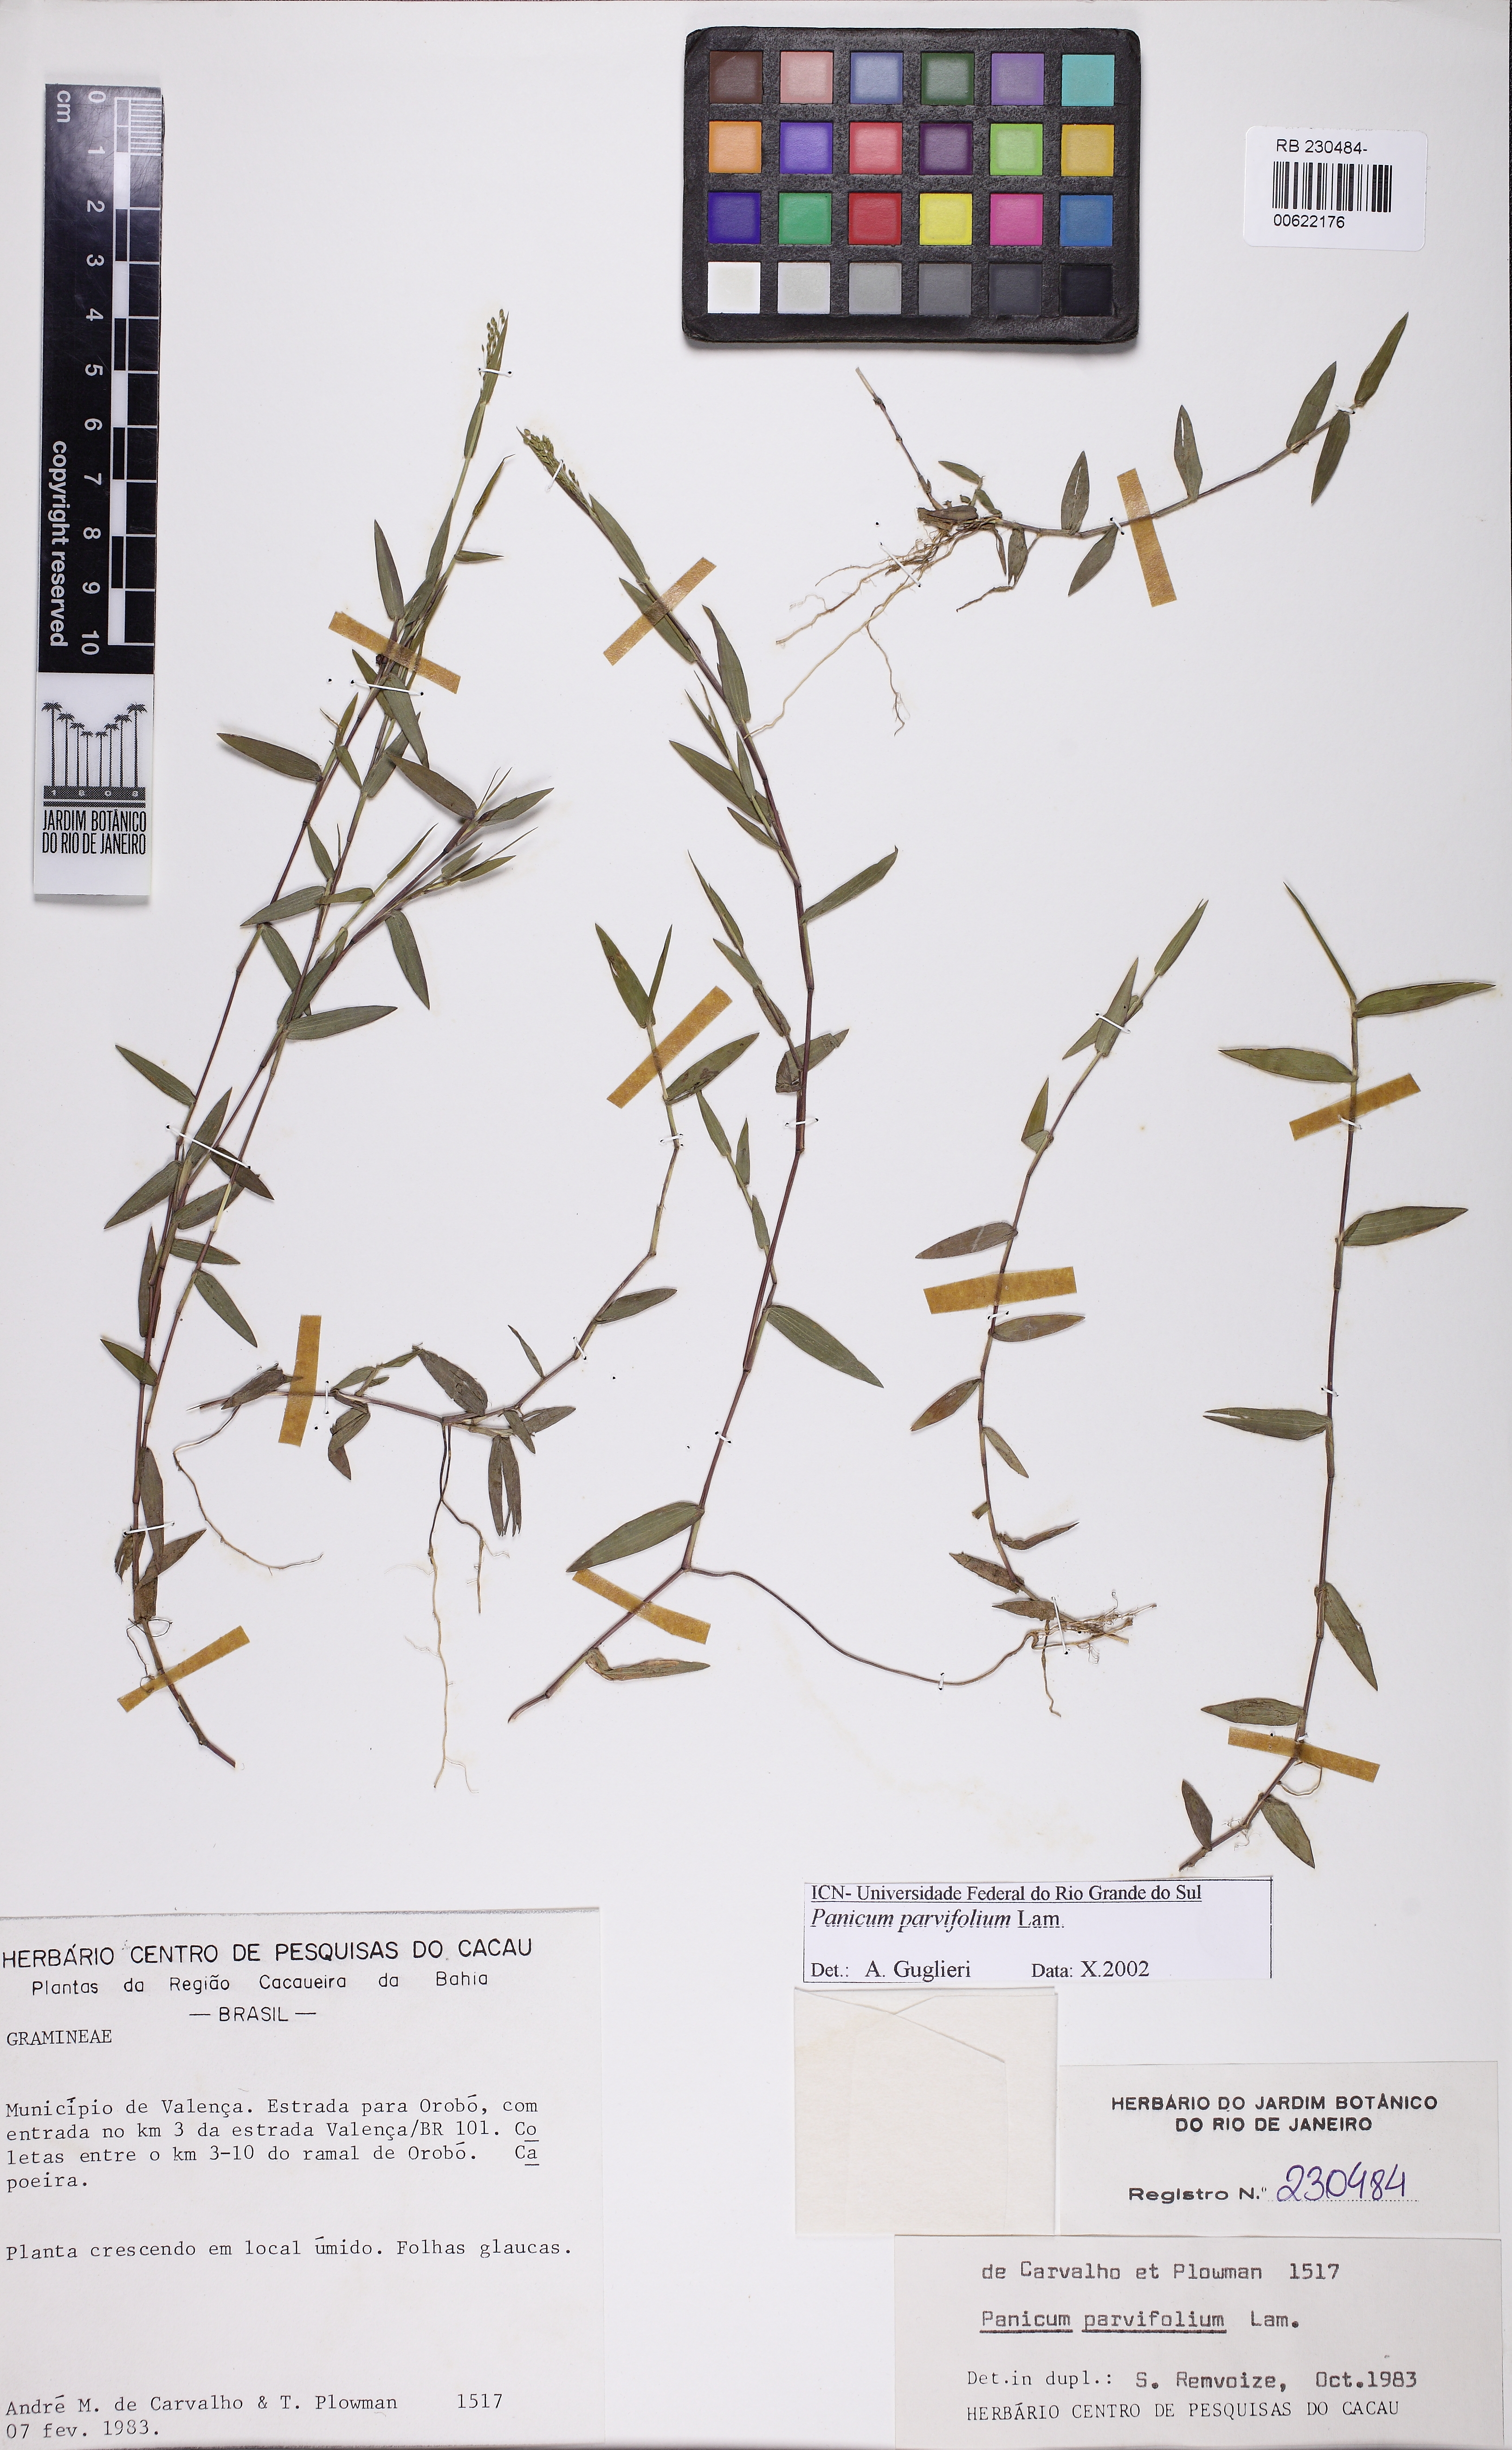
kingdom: Plantae
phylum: Tracheophyta
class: Liliopsida
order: Poales
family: Poaceae
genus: Trichanthecium
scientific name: Trichanthecium parvifolium
